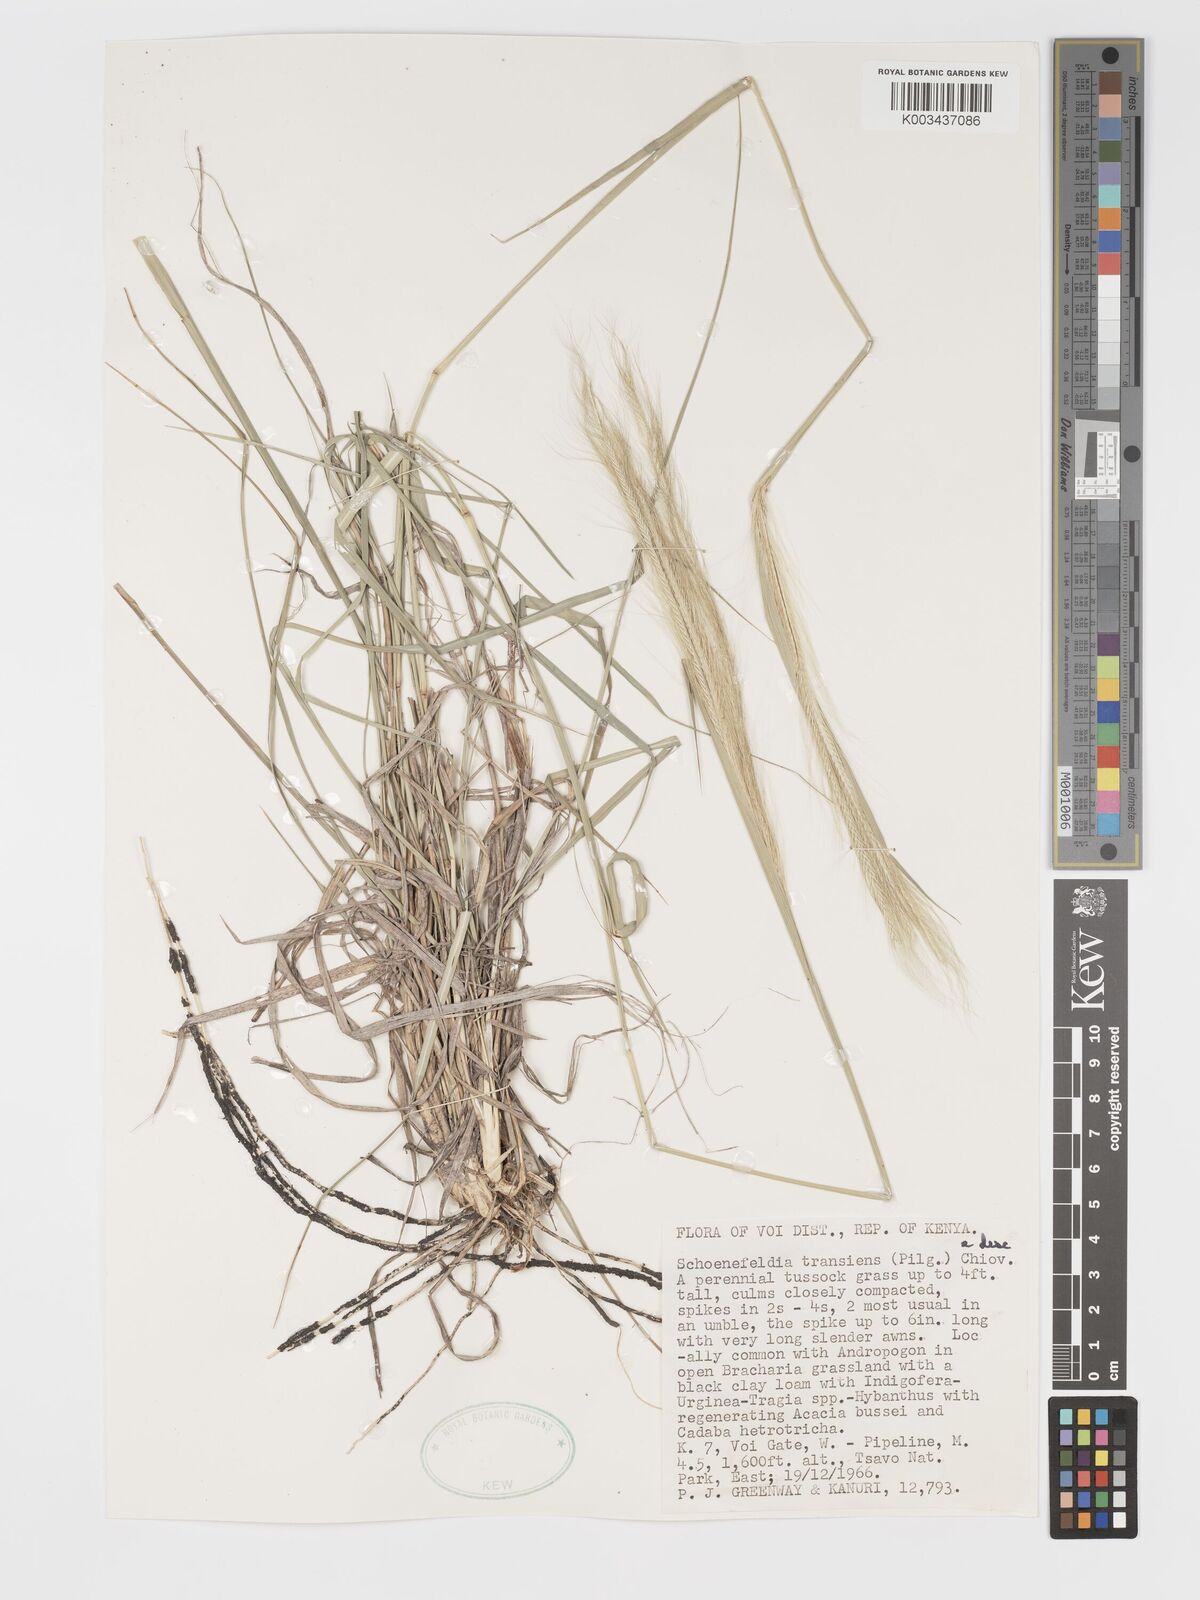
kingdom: Plantae
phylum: Tracheophyta
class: Liliopsida
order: Poales
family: Poaceae
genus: Schoenefeldia
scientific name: Schoenefeldia transiens
